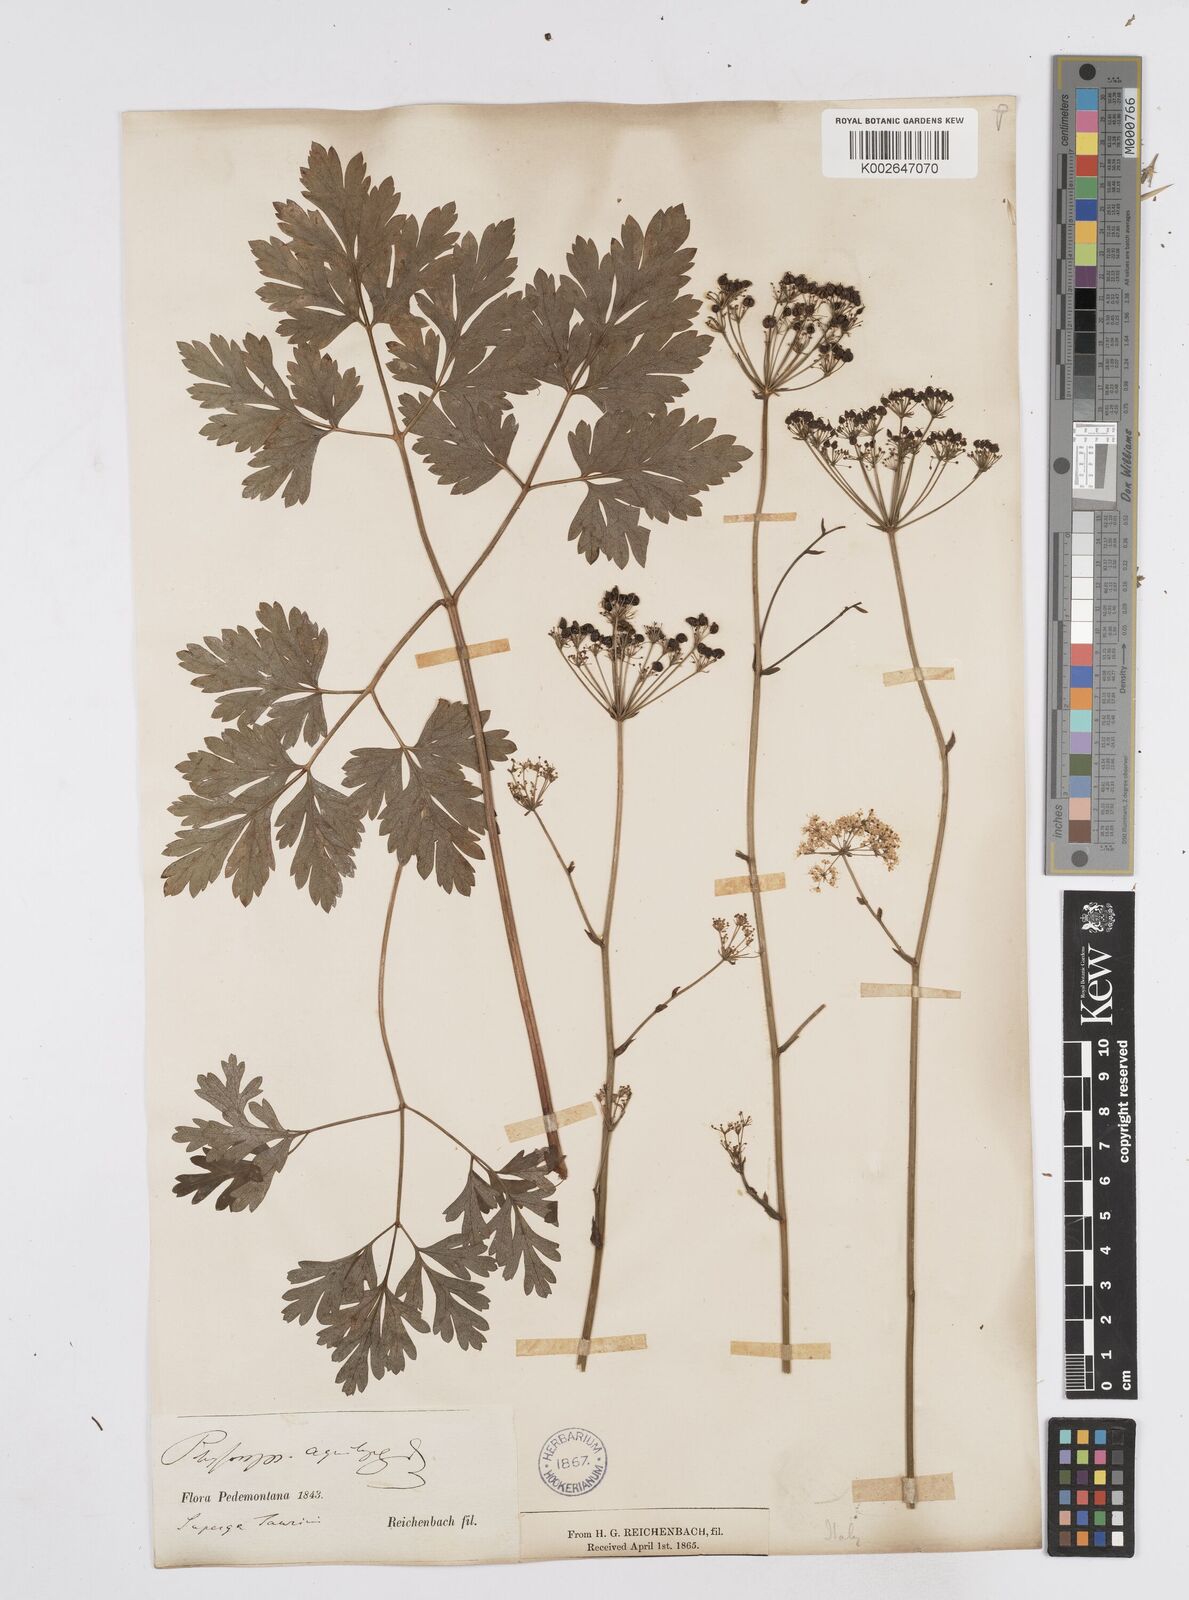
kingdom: Plantae
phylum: Tracheophyta
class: Magnoliopsida
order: Apiales
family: Apiaceae
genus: Physospermum
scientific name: Physospermum cornubiense
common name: Bladderseed
